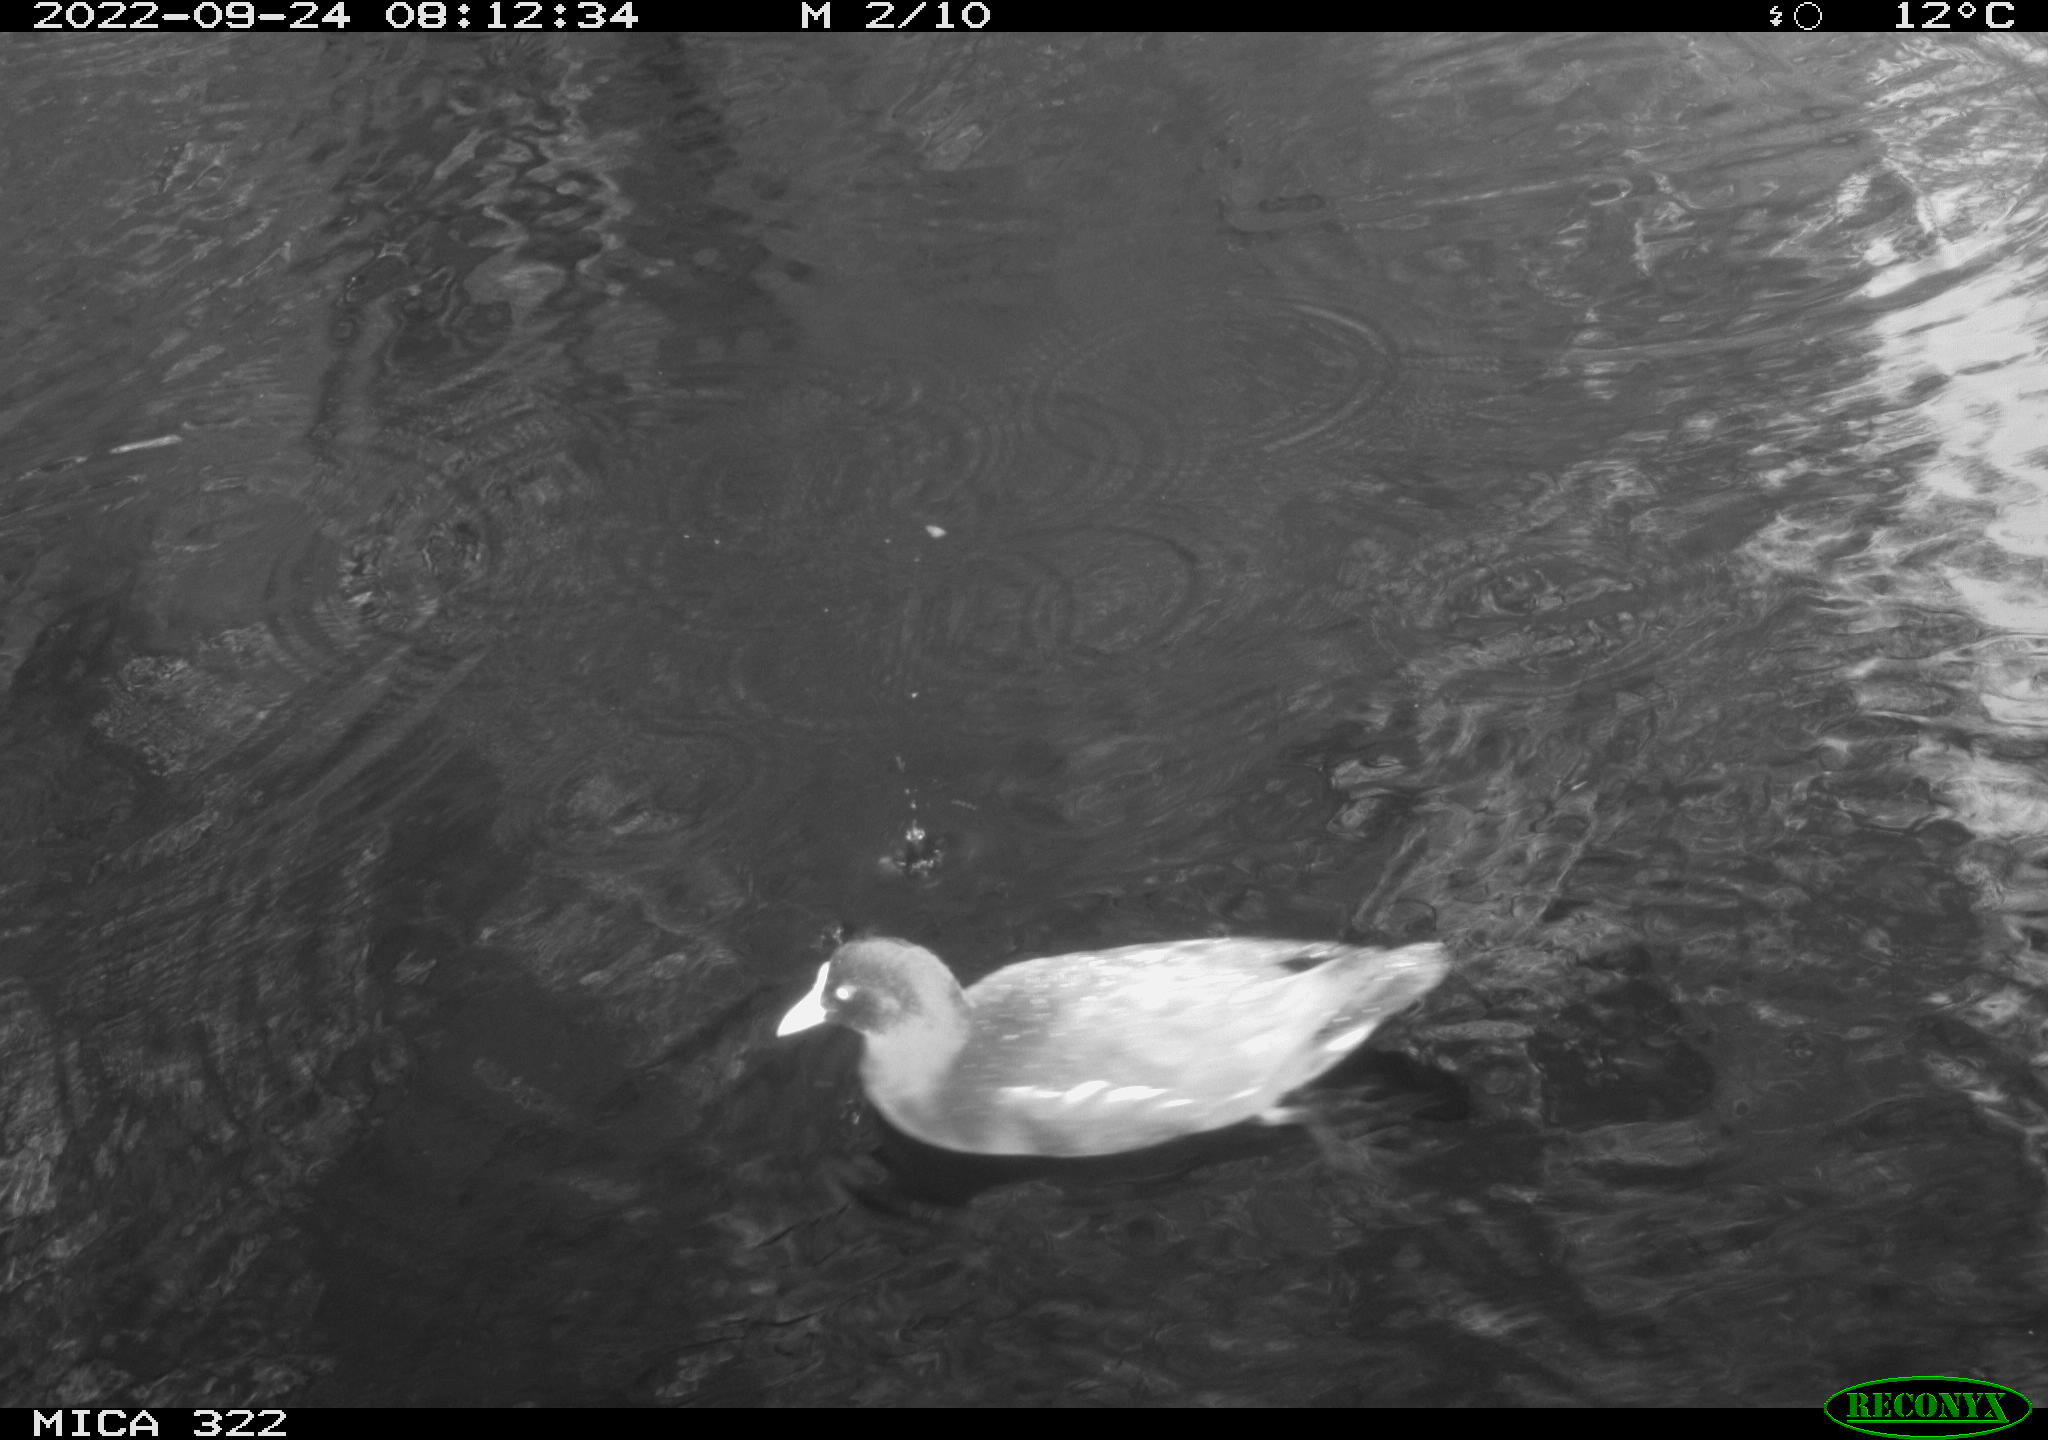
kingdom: Animalia
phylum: Chordata
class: Aves
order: Gruiformes
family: Rallidae
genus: Gallinula
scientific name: Gallinula chloropus
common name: Common moorhen
